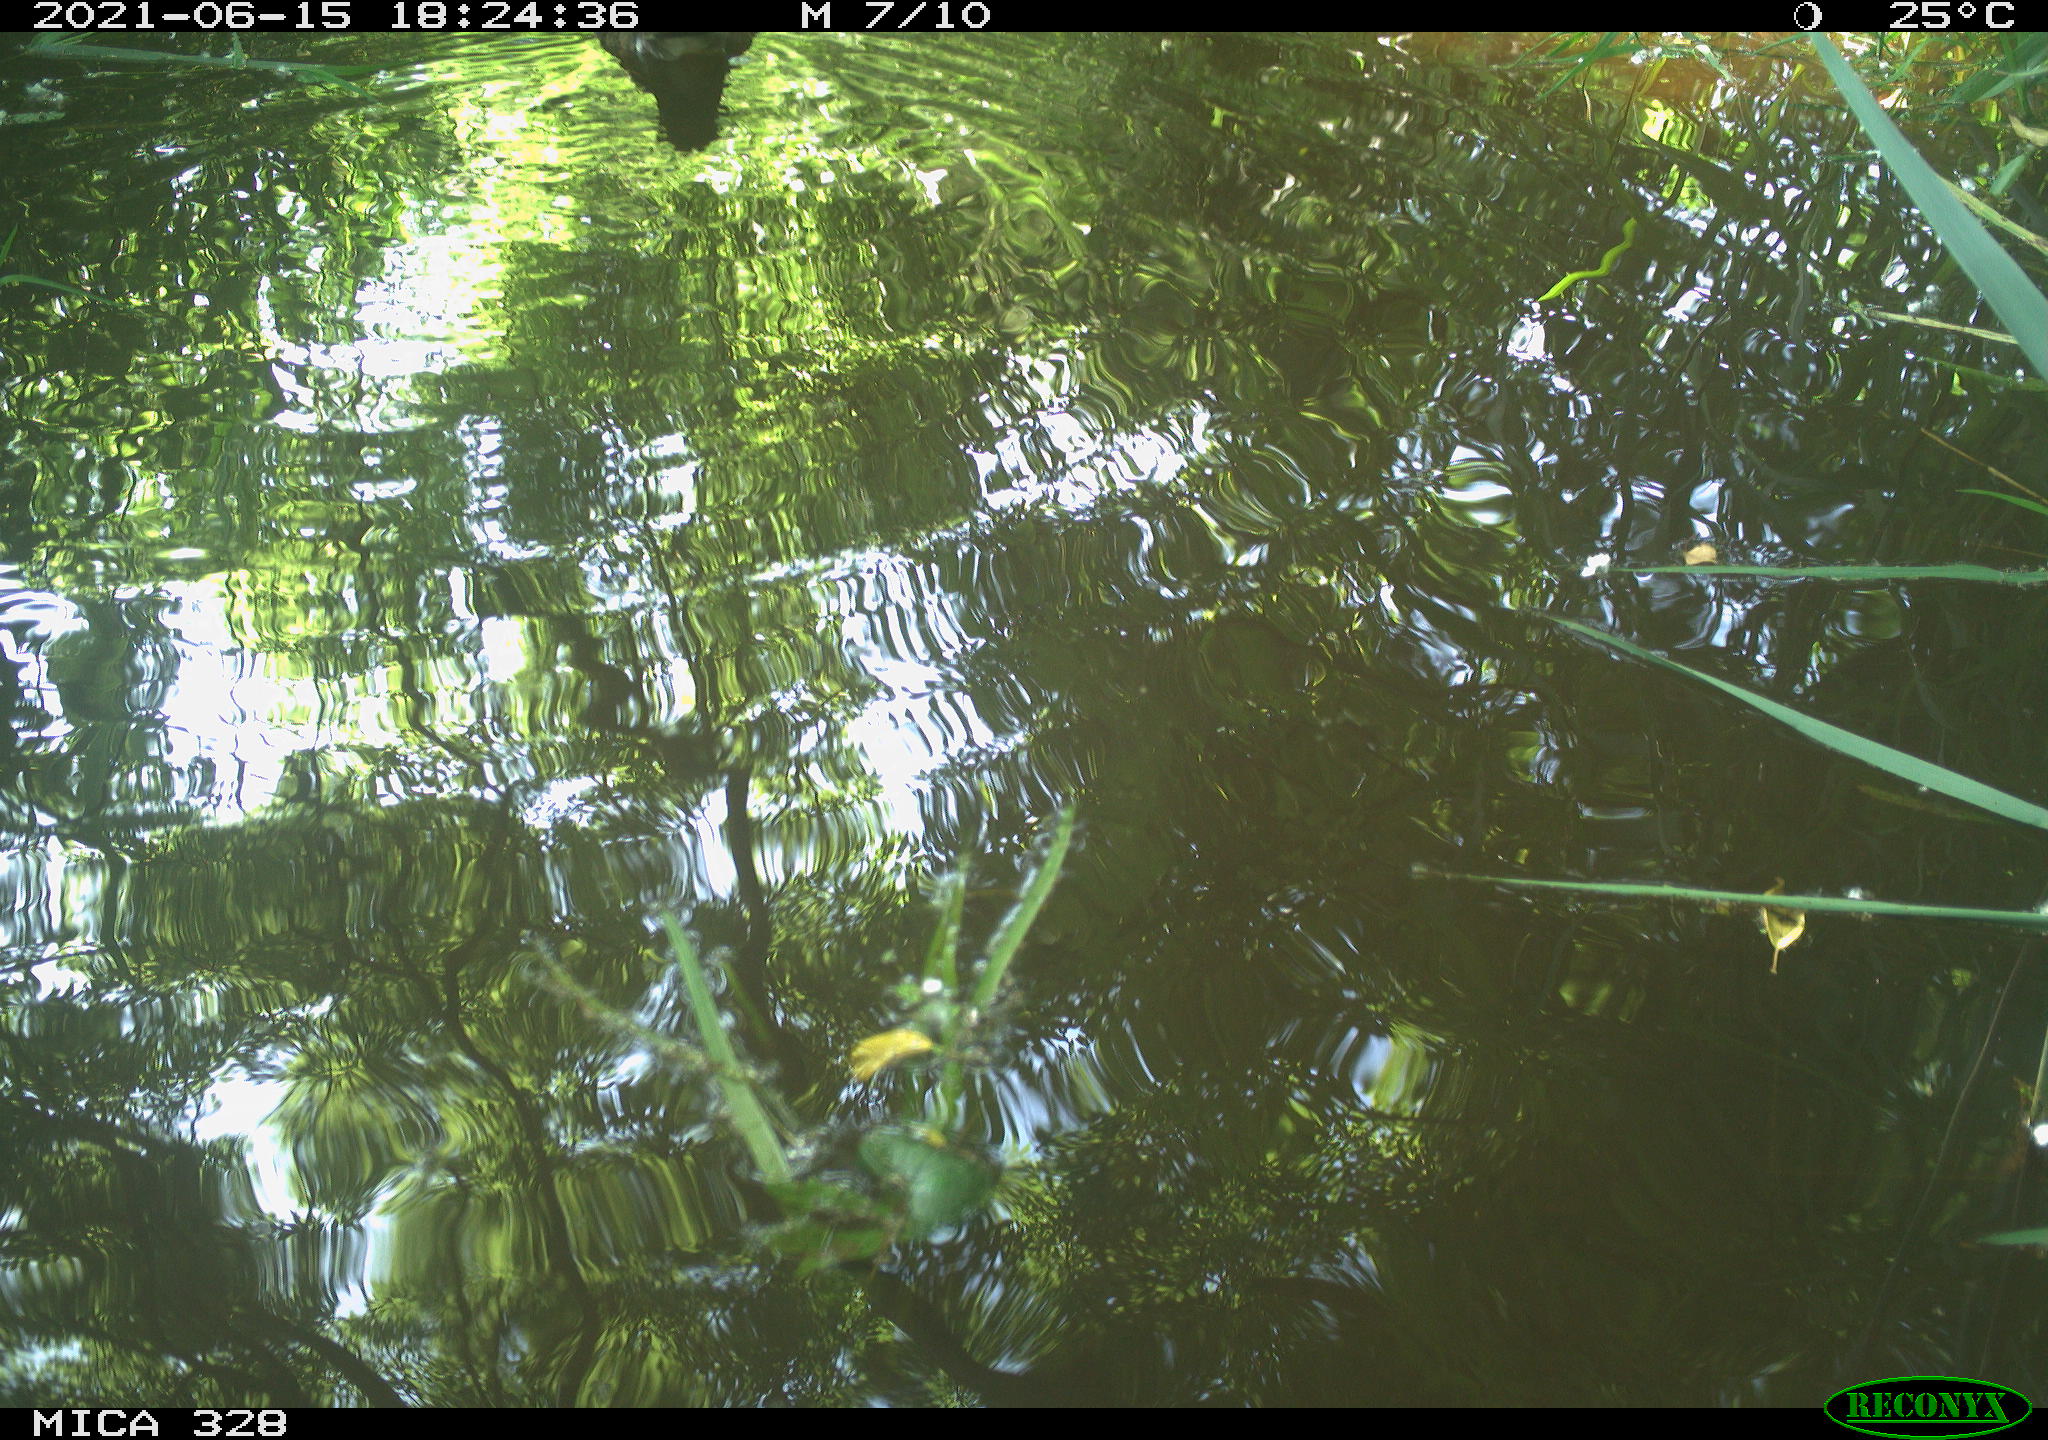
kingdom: Animalia
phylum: Chordata
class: Aves
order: Anseriformes
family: Anatidae
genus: Aix
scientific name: Aix galericulata
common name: Mandarin duck
